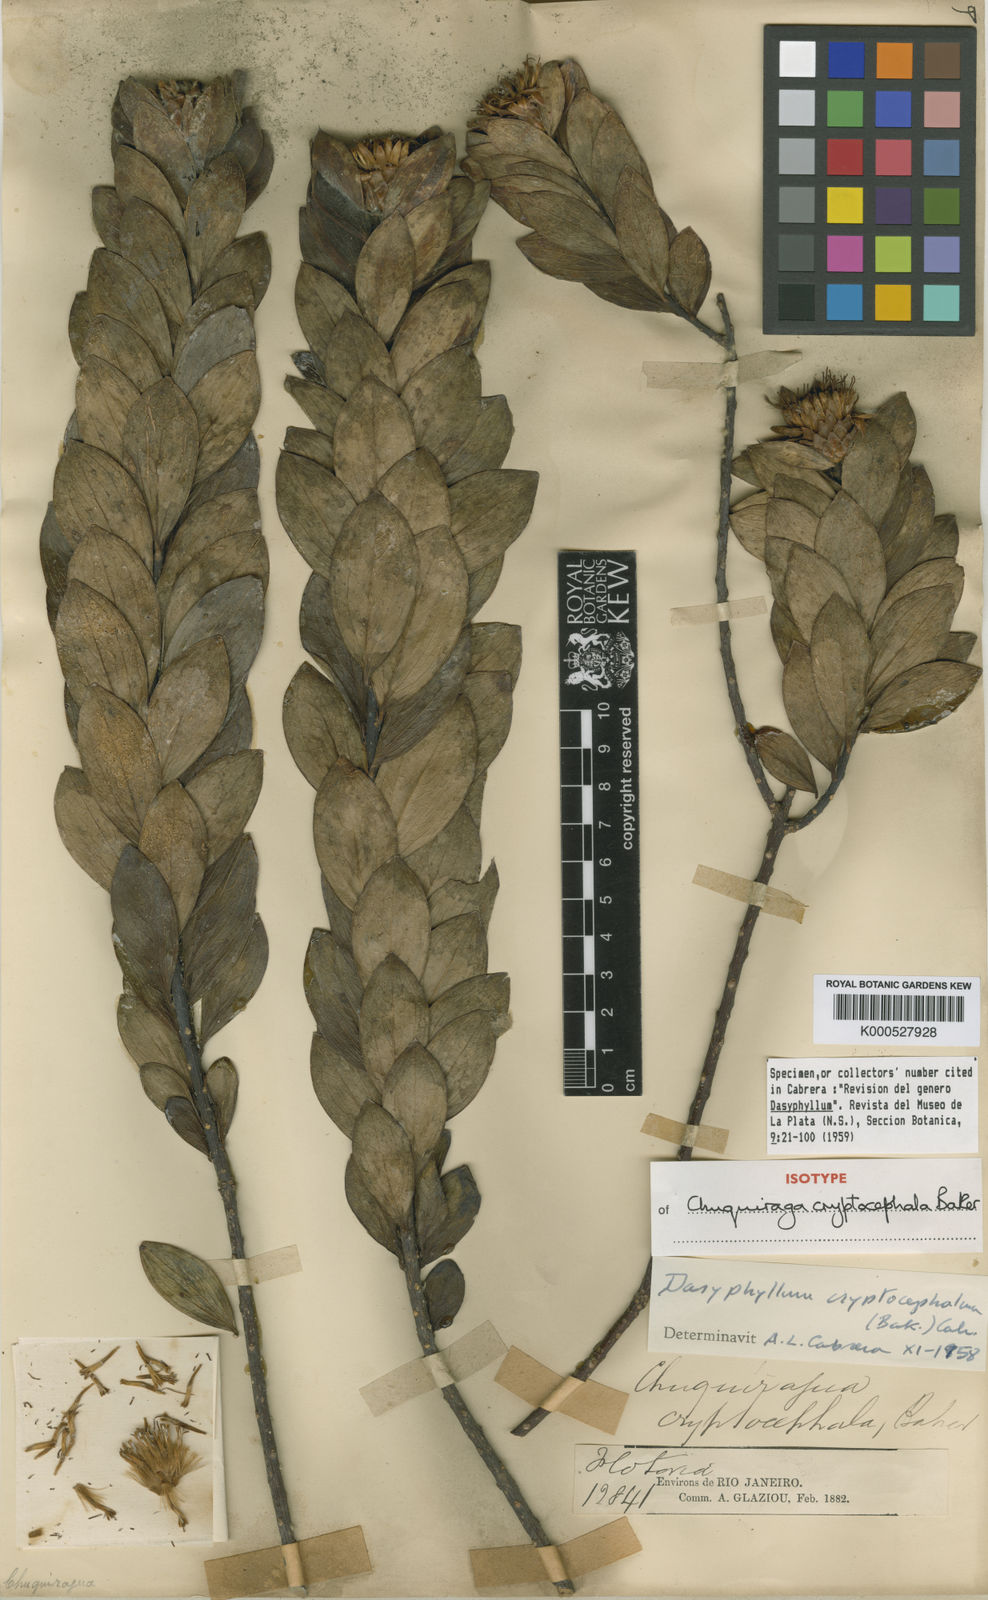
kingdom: Plantae
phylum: Tracheophyta
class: Magnoliopsida
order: Asterales
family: Asteraceae
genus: Dasyphyllum
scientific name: Dasyphyllum cryptocephalum
